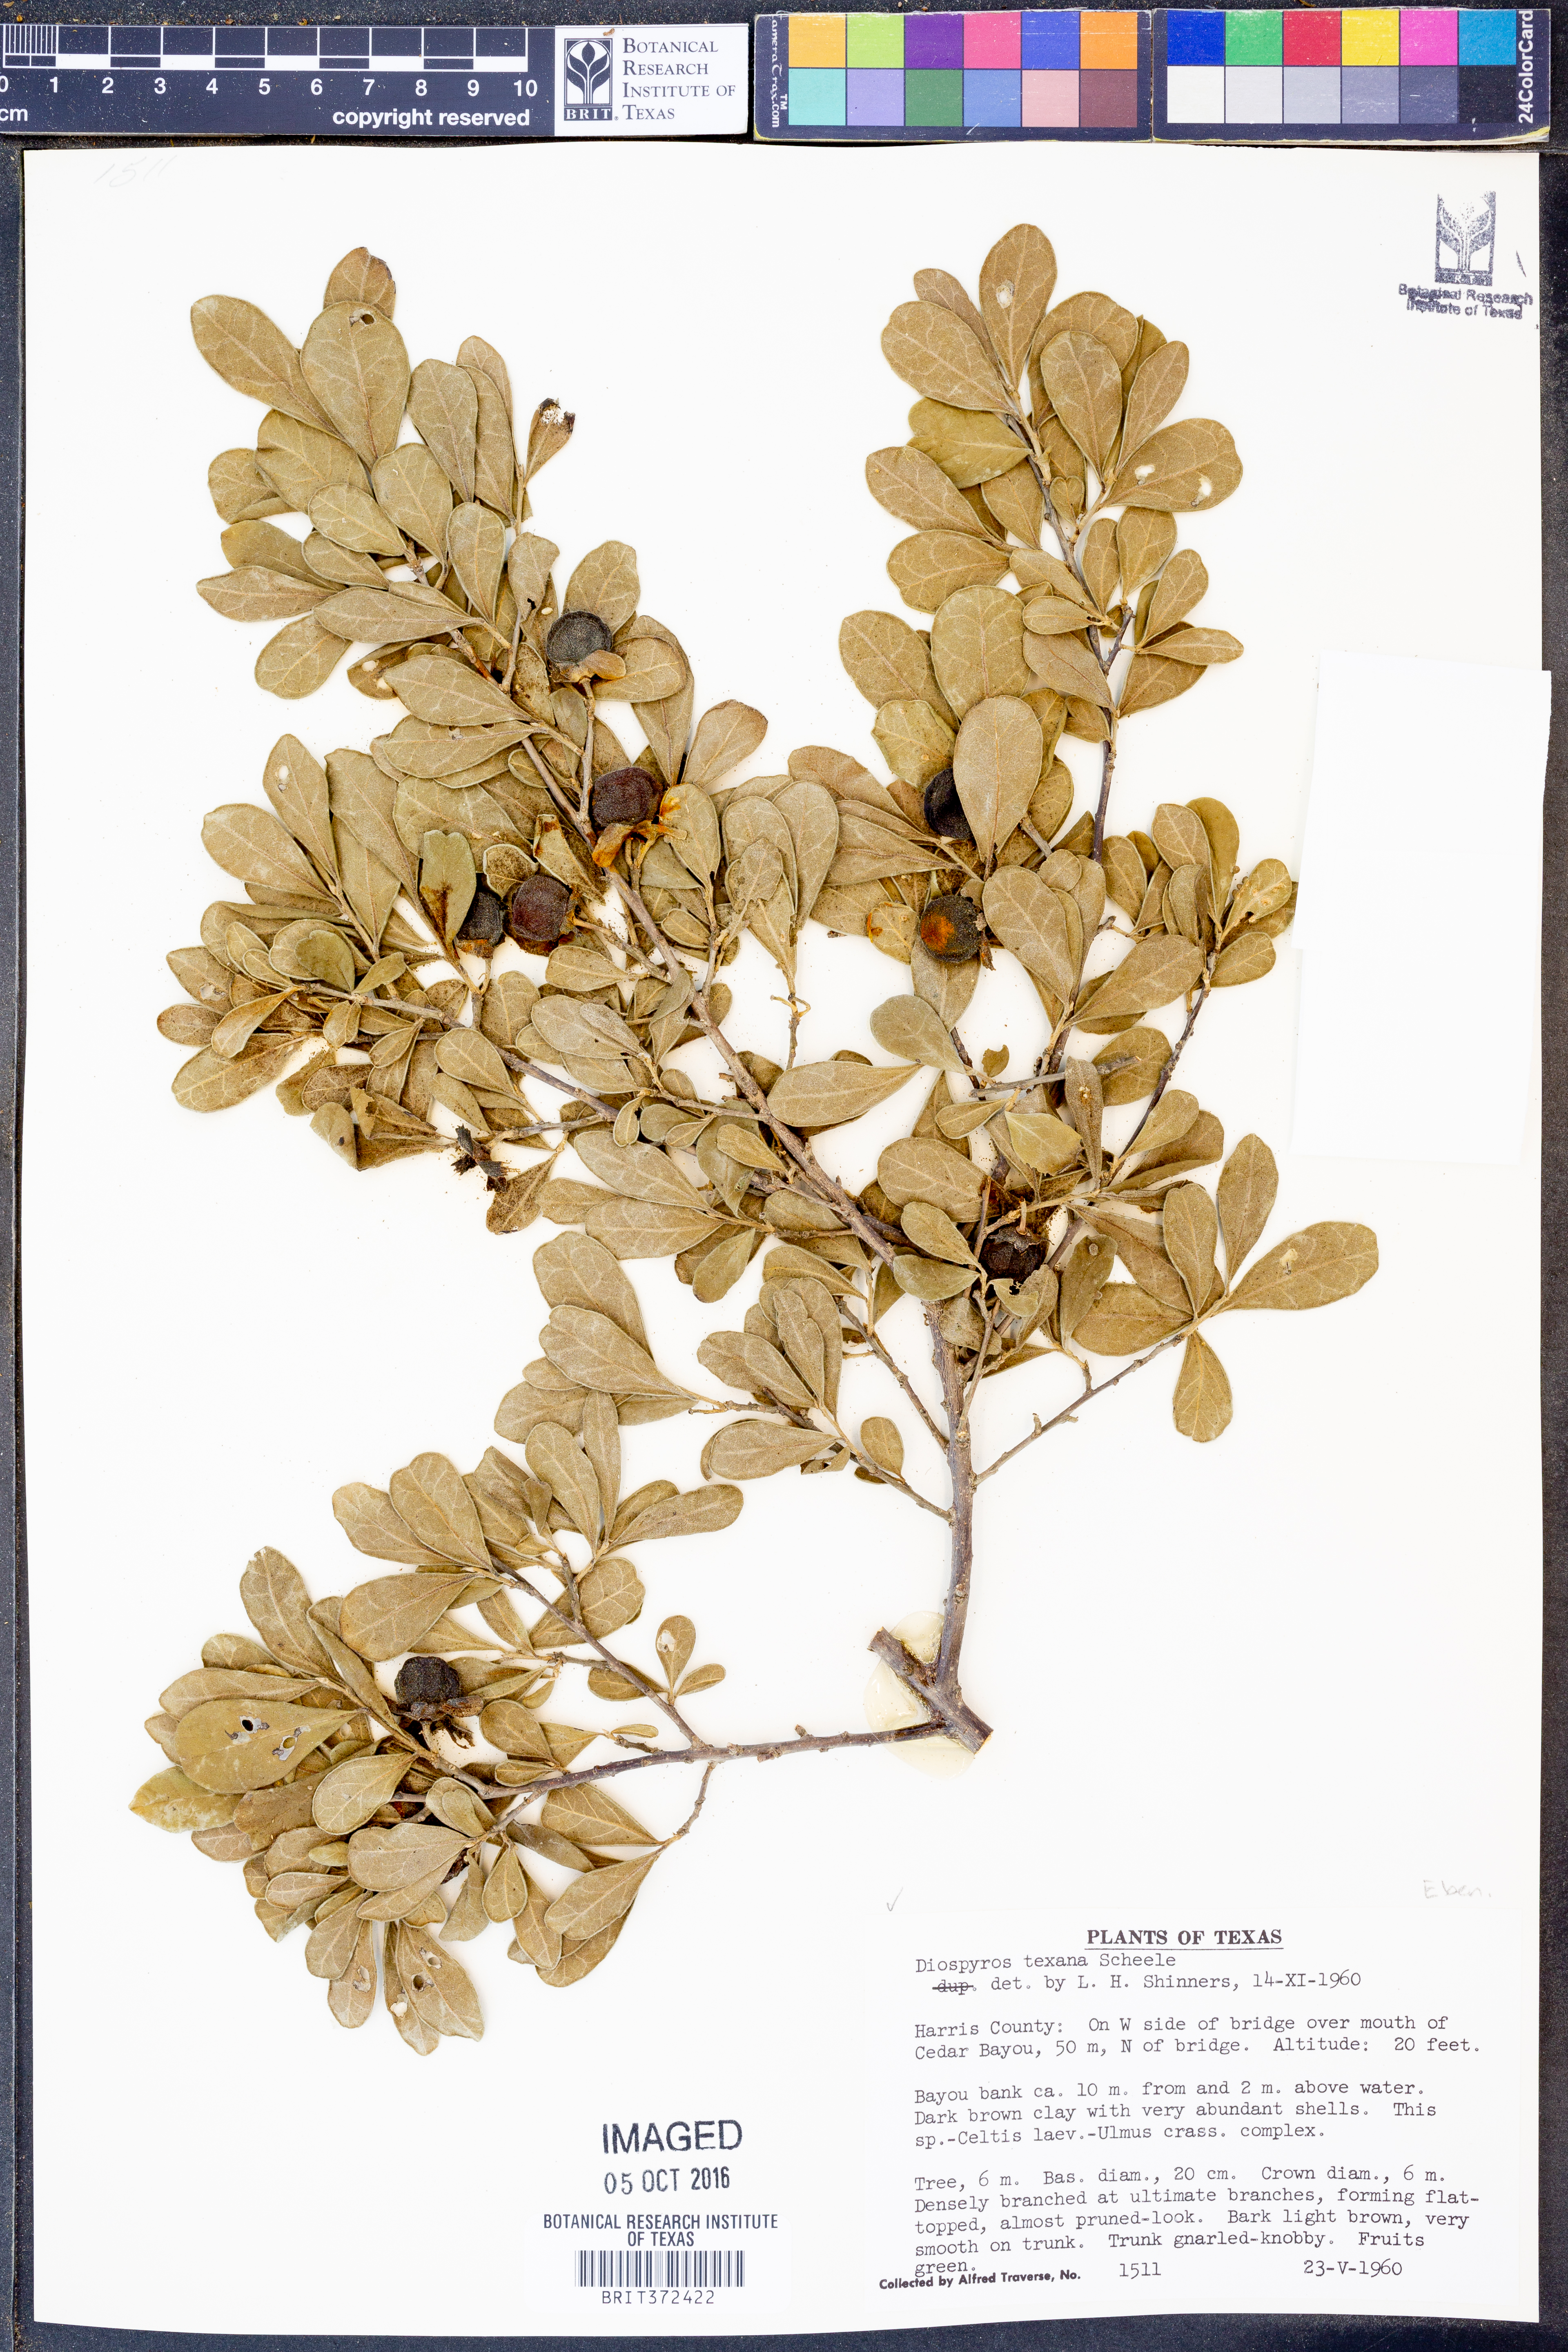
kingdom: Plantae
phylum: Tracheophyta
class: Magnoliopsida
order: Ericales
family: Ebenaceae
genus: Diospyros
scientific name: Diospyros texana
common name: Texas persimmon
